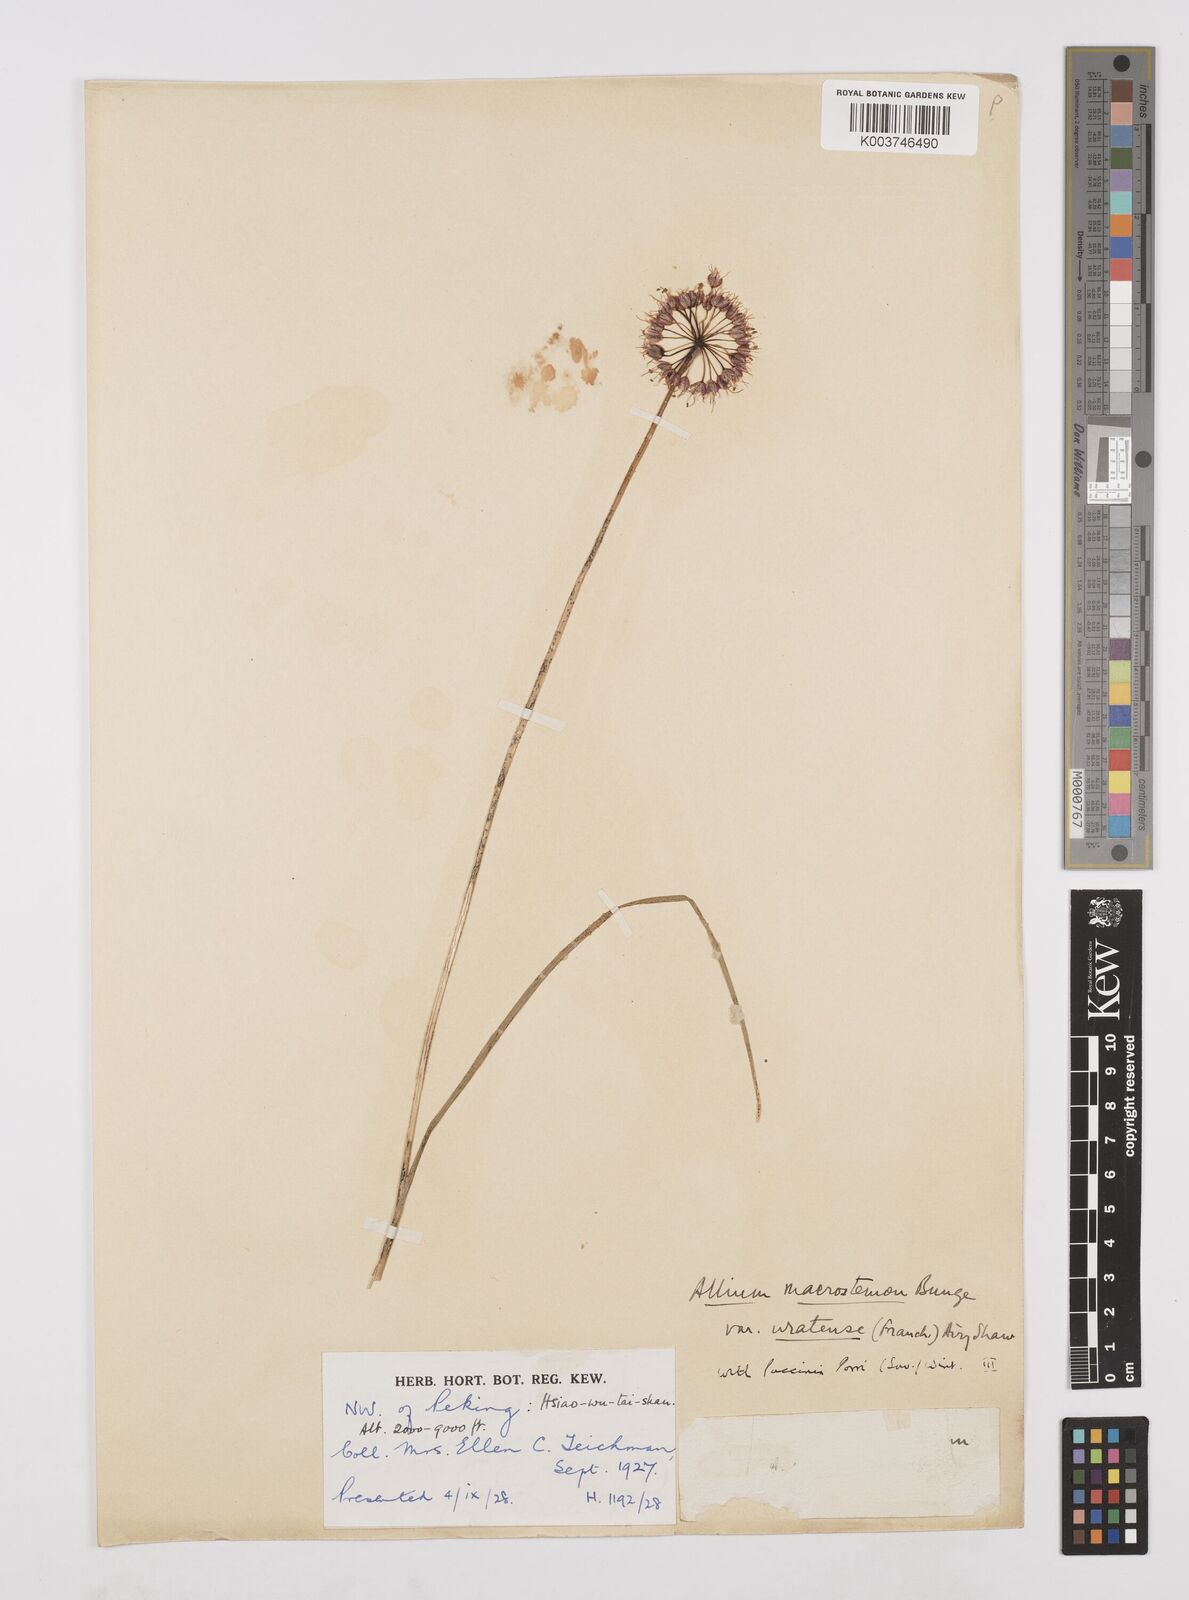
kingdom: Plantae
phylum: Tracheophyta
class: Liliopsida
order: Asparagales
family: Amaryllidaceae
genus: Allium
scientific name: Allium macrostemon
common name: Chinese garlic
